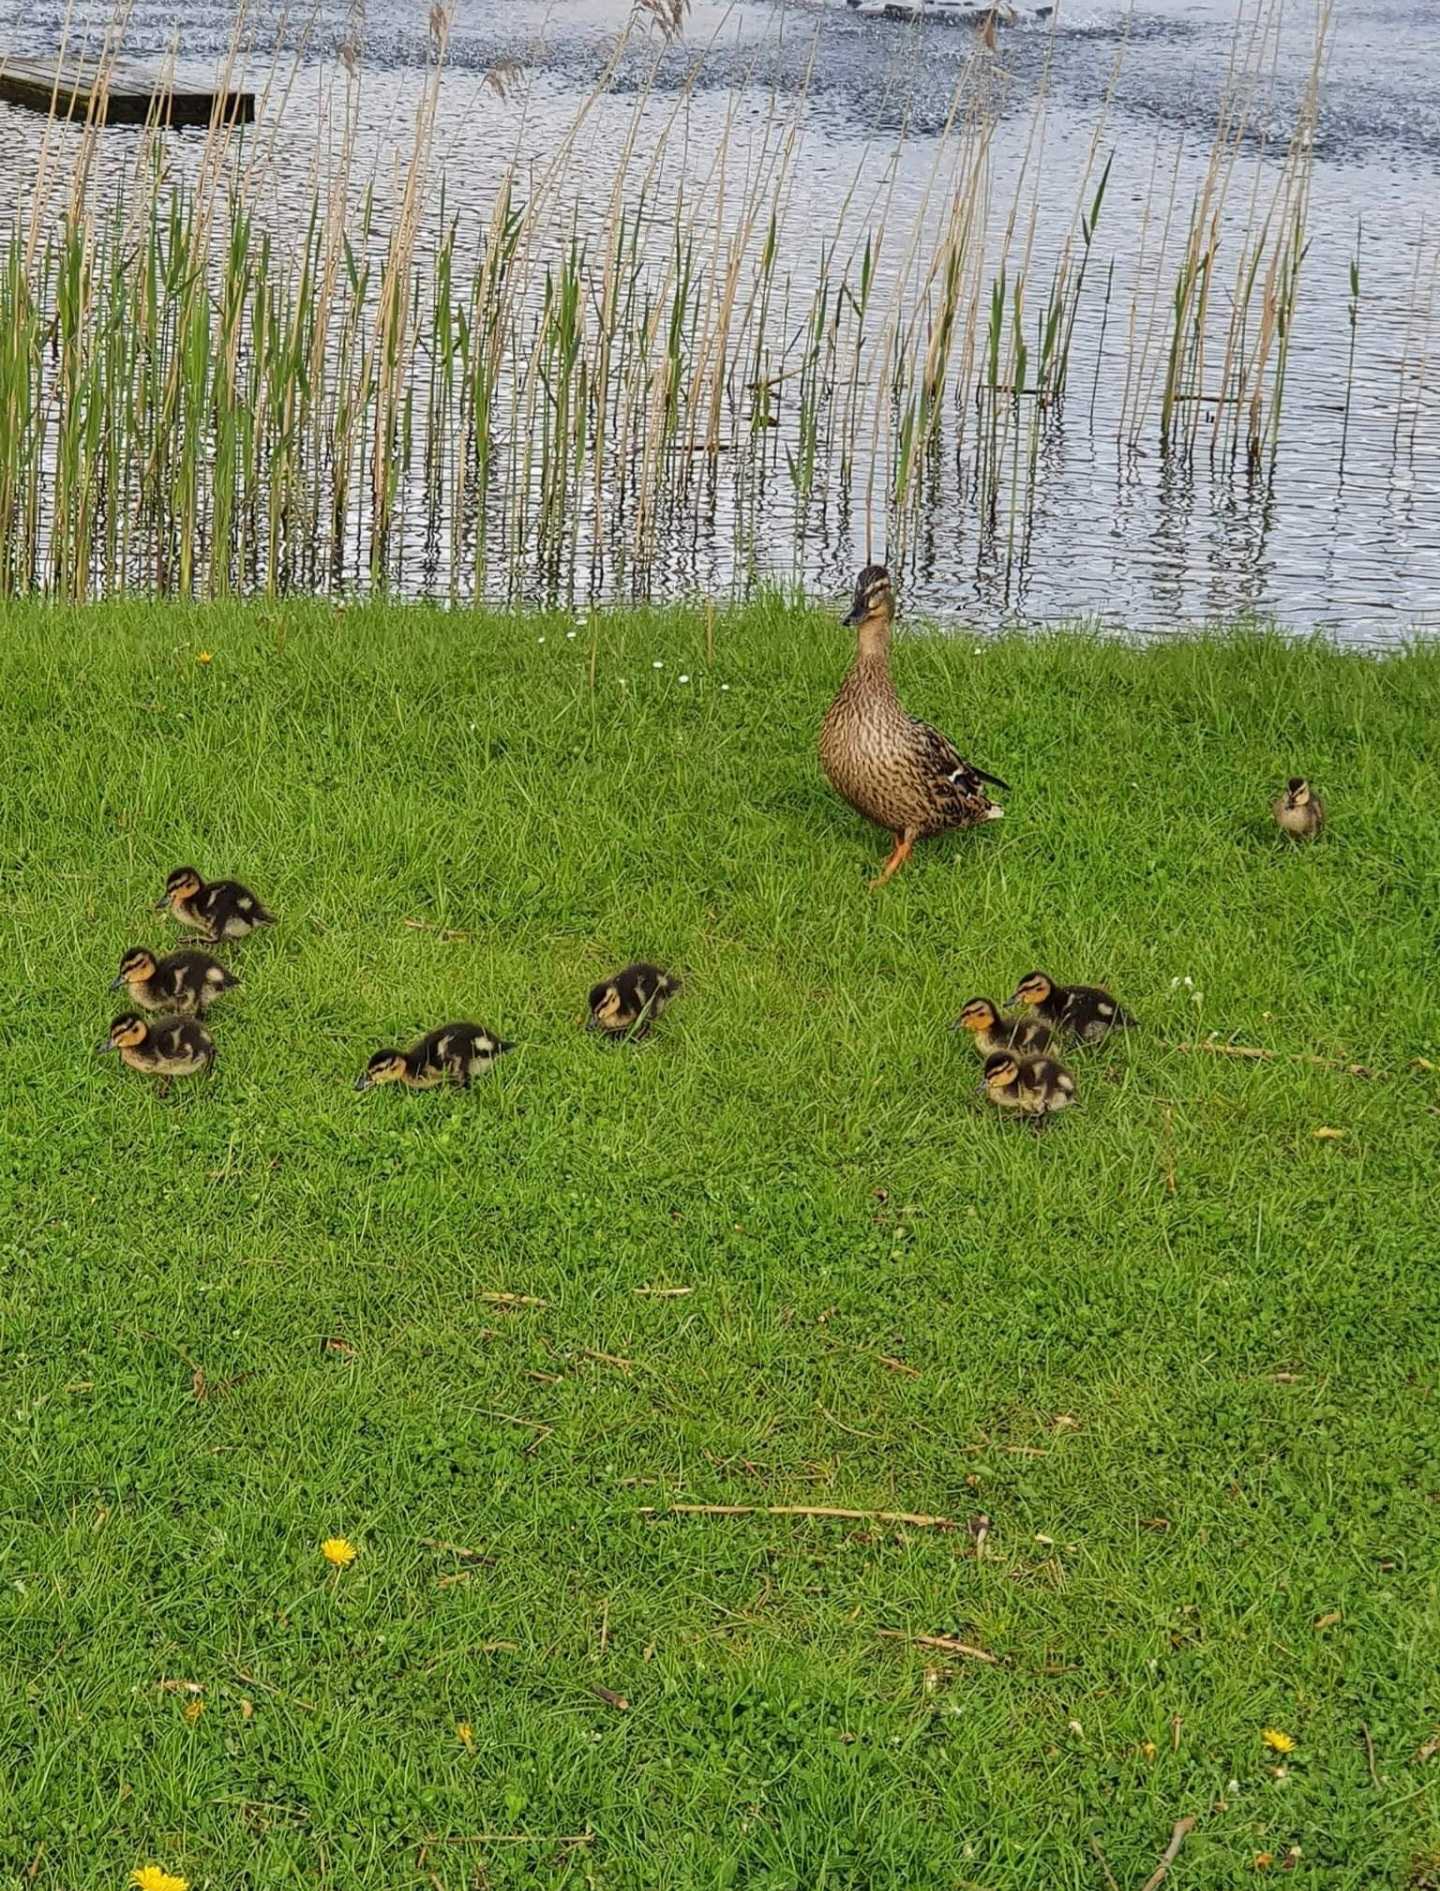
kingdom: Animalia
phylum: Chordata
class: Aves
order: Anseriformes
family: Anatidae
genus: Anas
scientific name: Anas platyrhynchos
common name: Gråand
